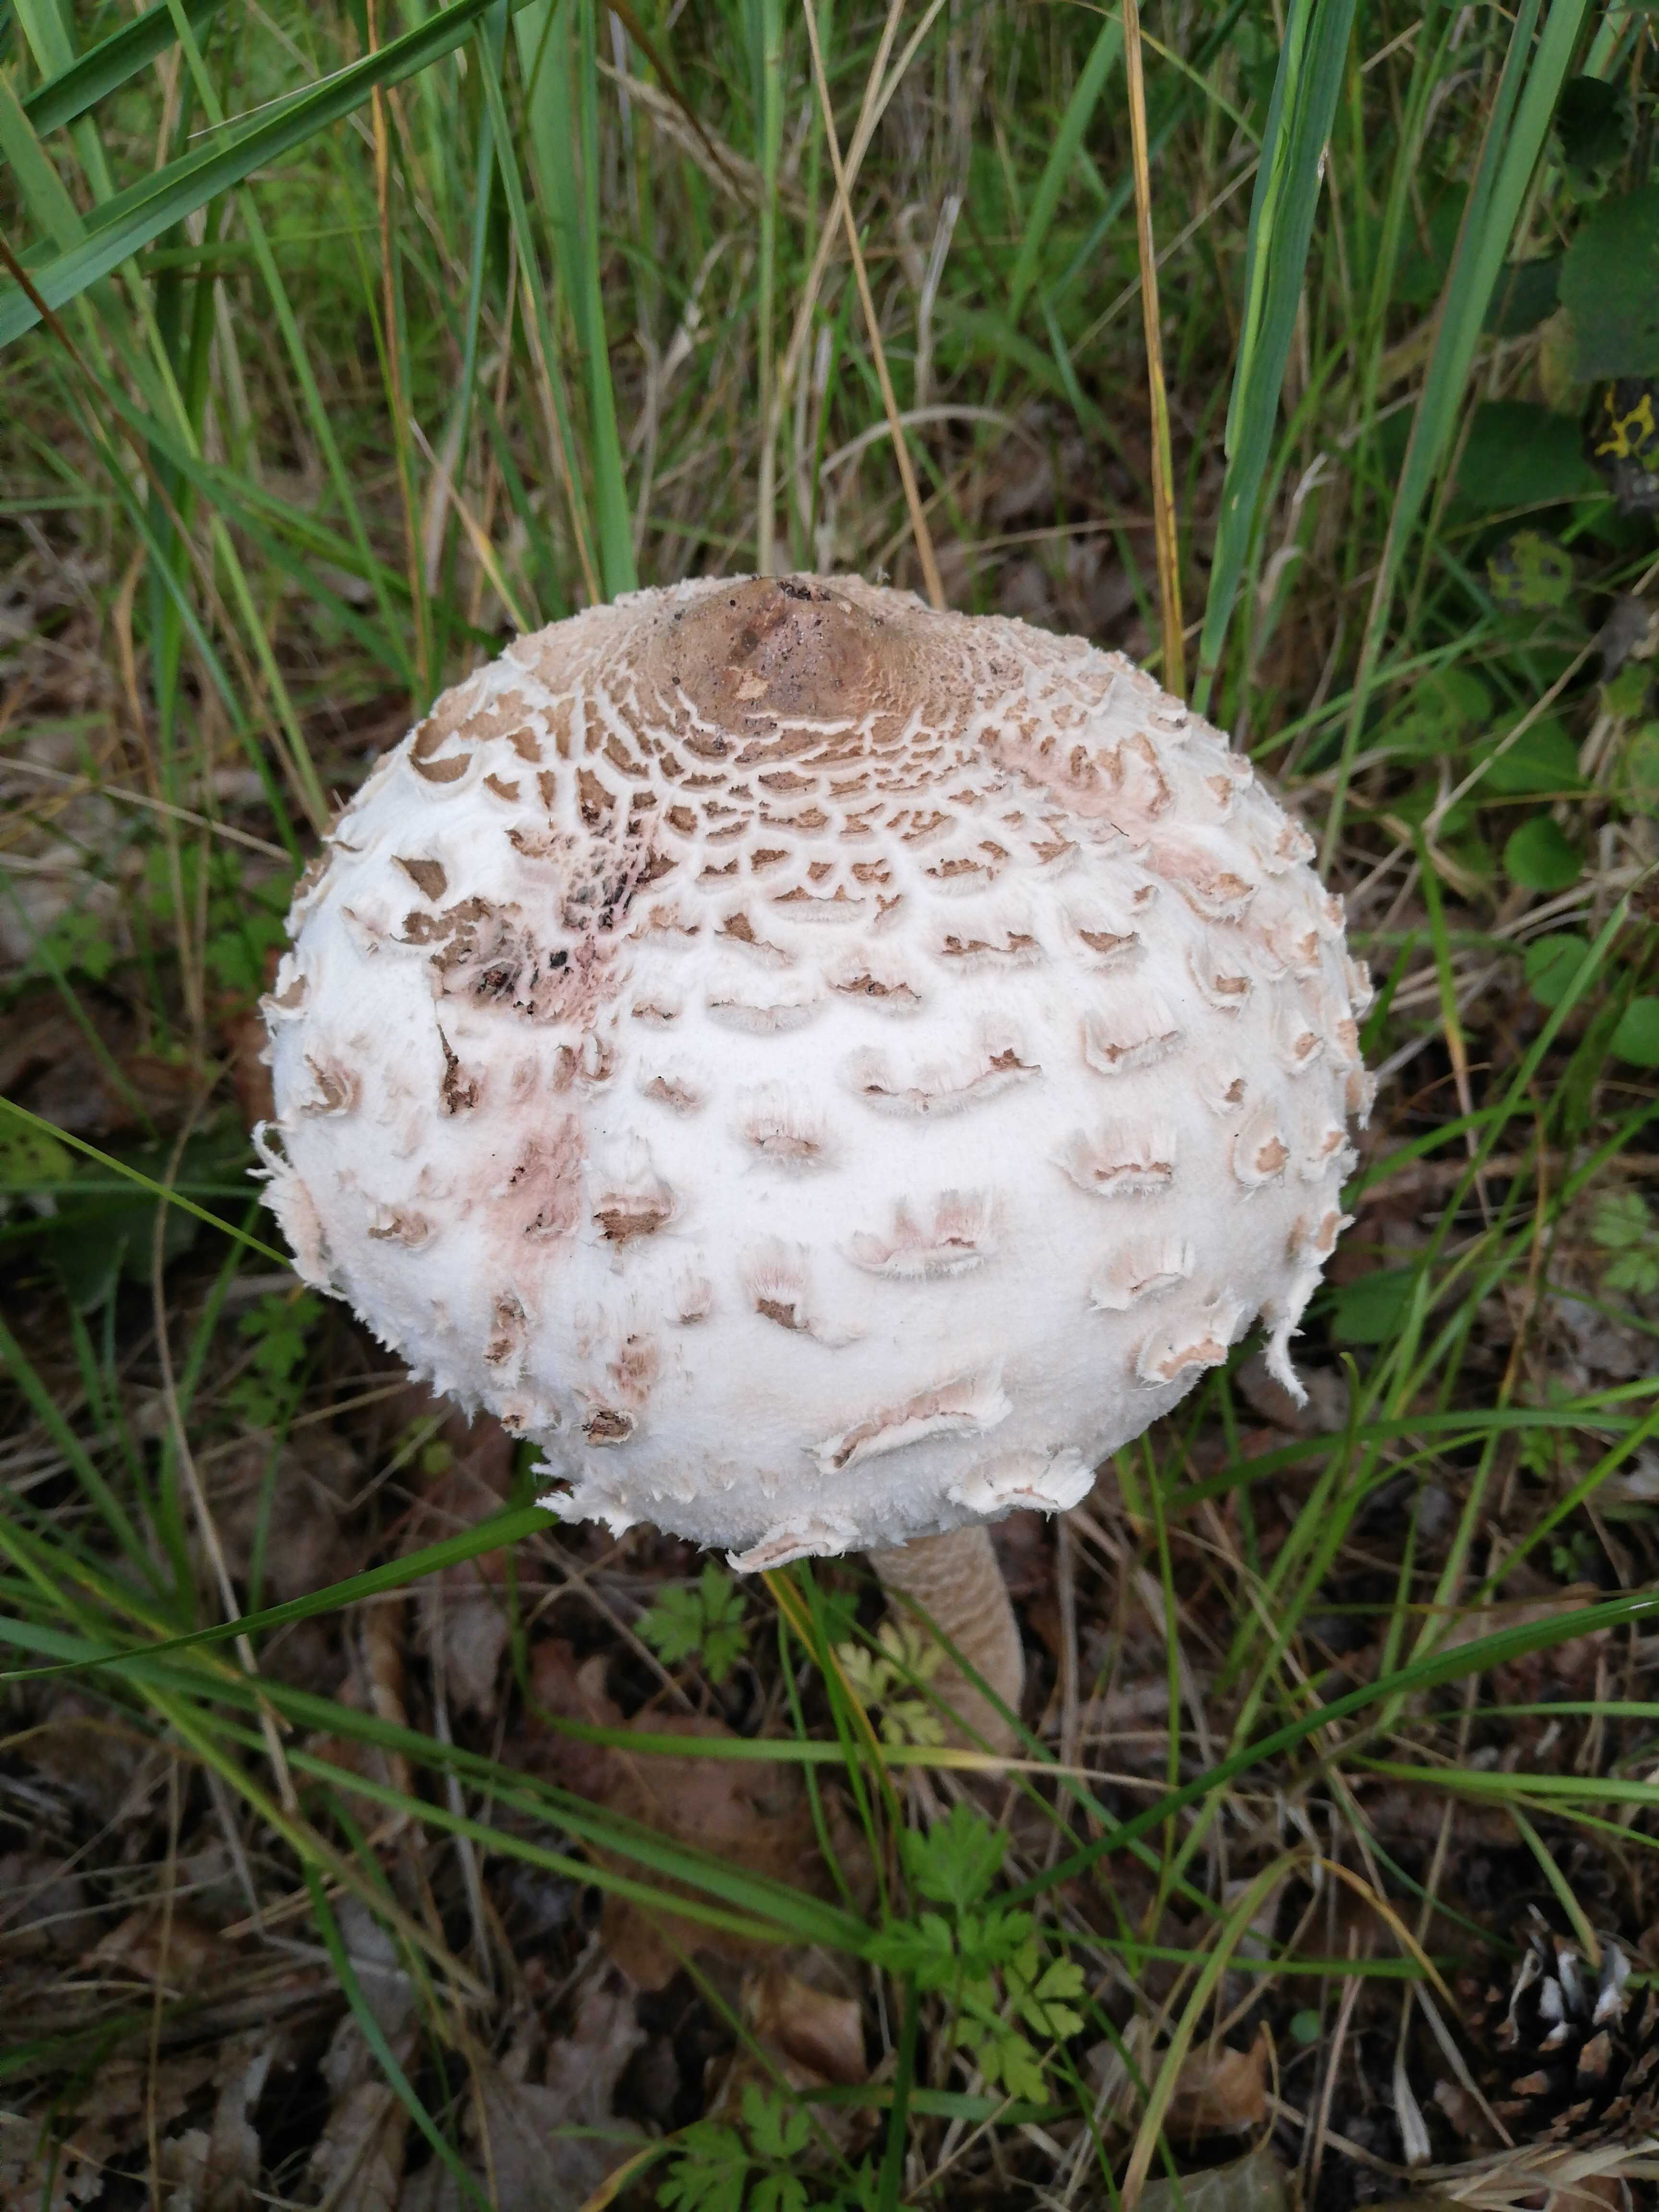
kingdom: Fungi
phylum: Basidiomycota
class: Agaricomycetes
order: Agaricales
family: Agaricaceae
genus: Chlorophyllum
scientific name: Chlorophyllum
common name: rabarberhat
